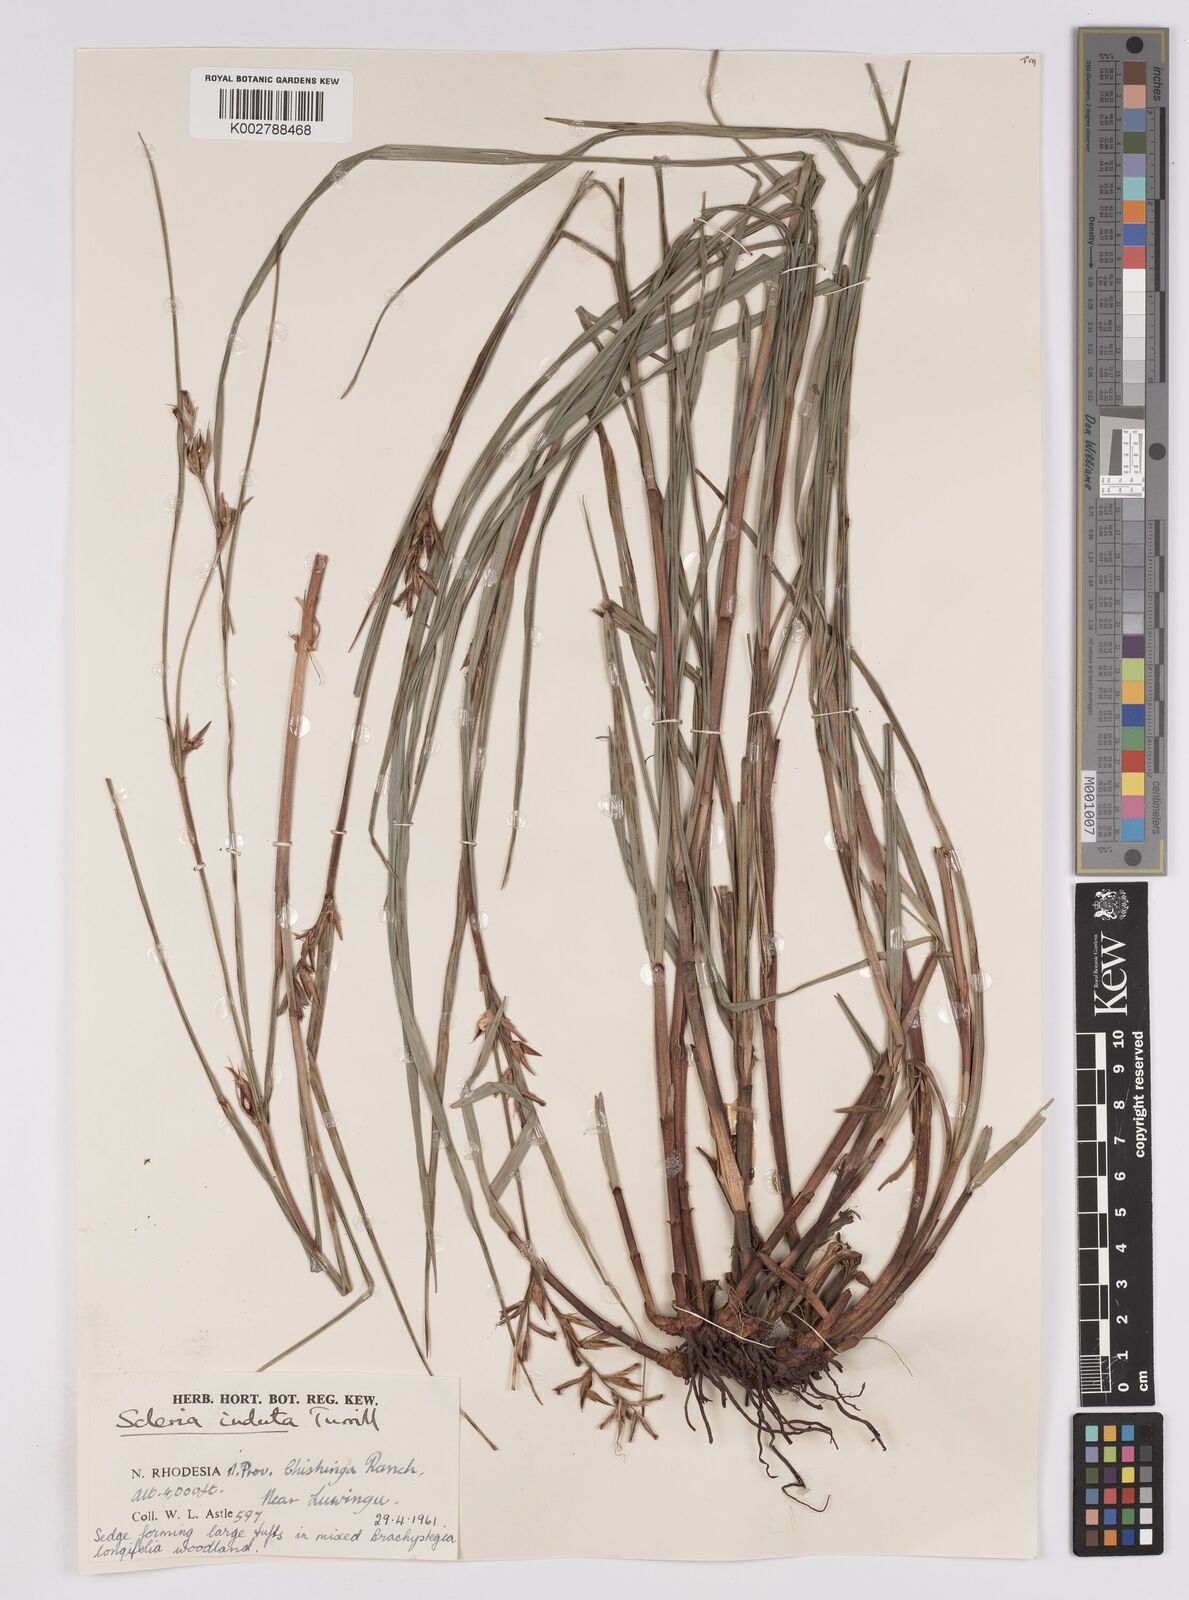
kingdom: Plantae
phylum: Tracheophyta
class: Liliopsida
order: Poales
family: Cyperaceae
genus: Scleria
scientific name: Scleria induta
